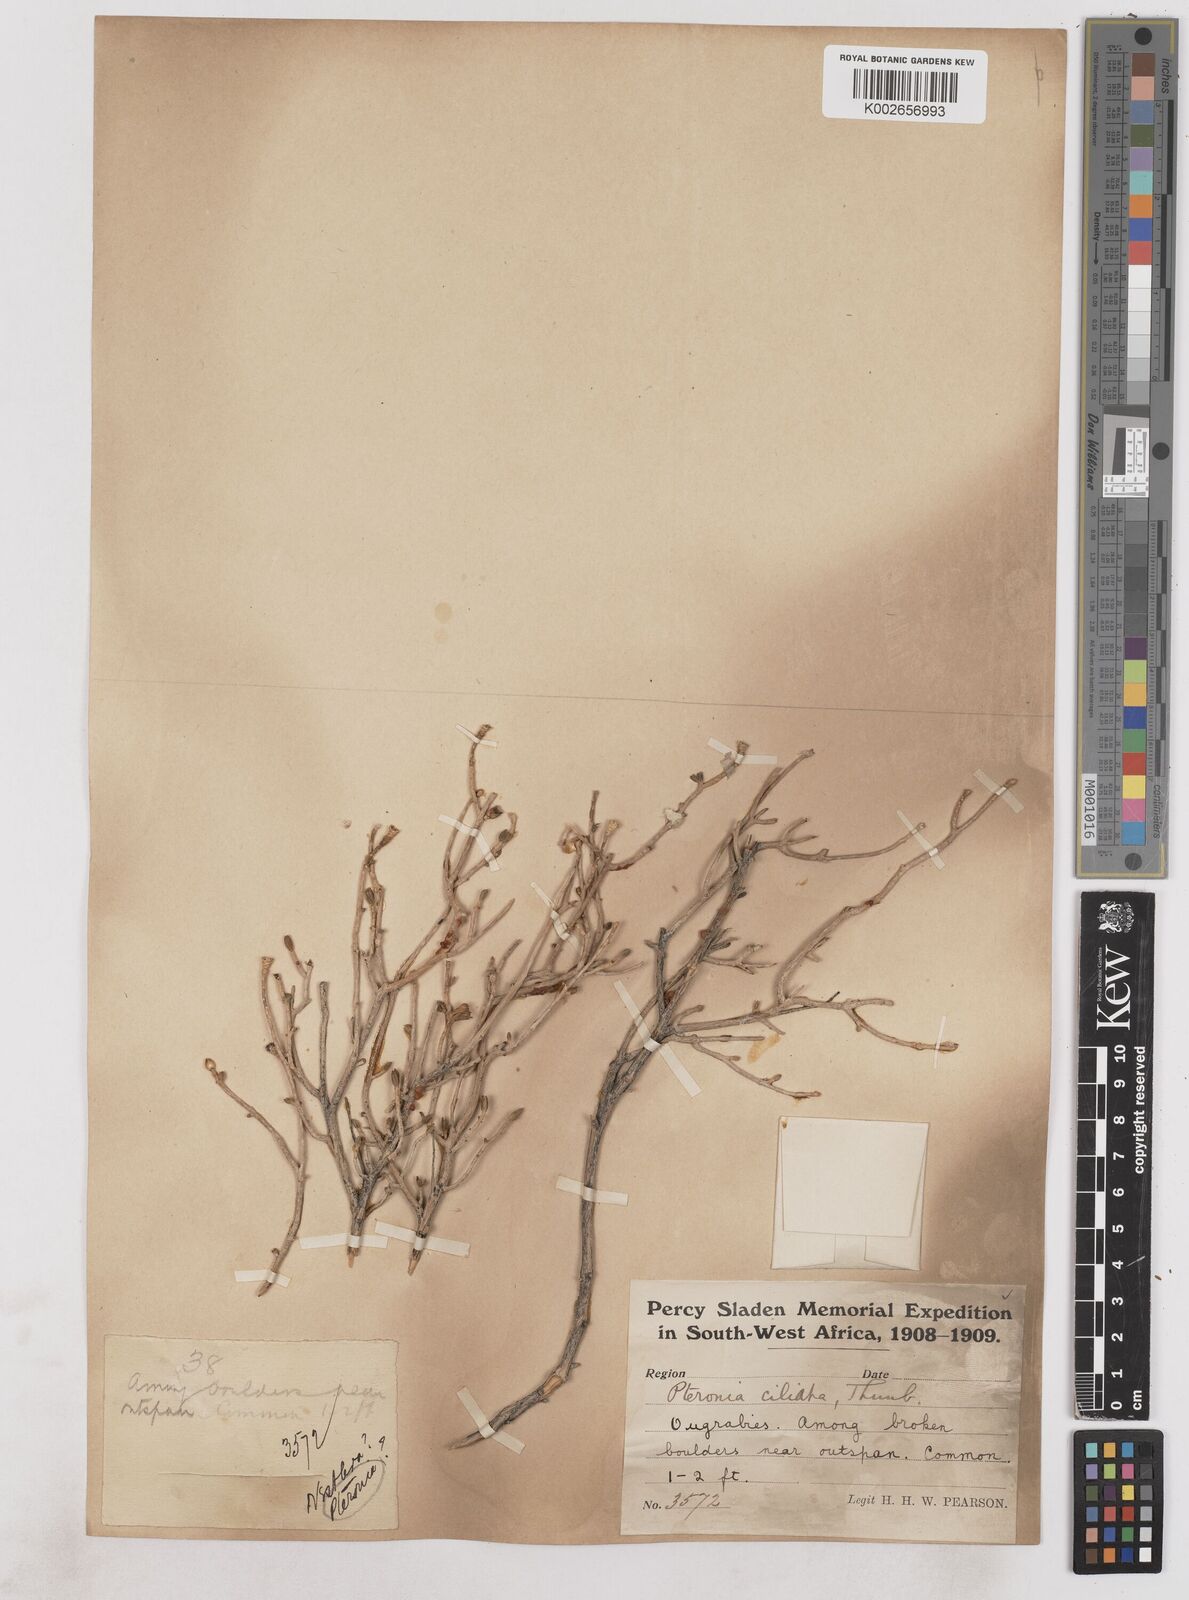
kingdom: Plantae
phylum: Tracheophyta
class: Magnoliopsida
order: Asterales
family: Asteraceae
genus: Pteronia
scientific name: Pteronia ciliata
